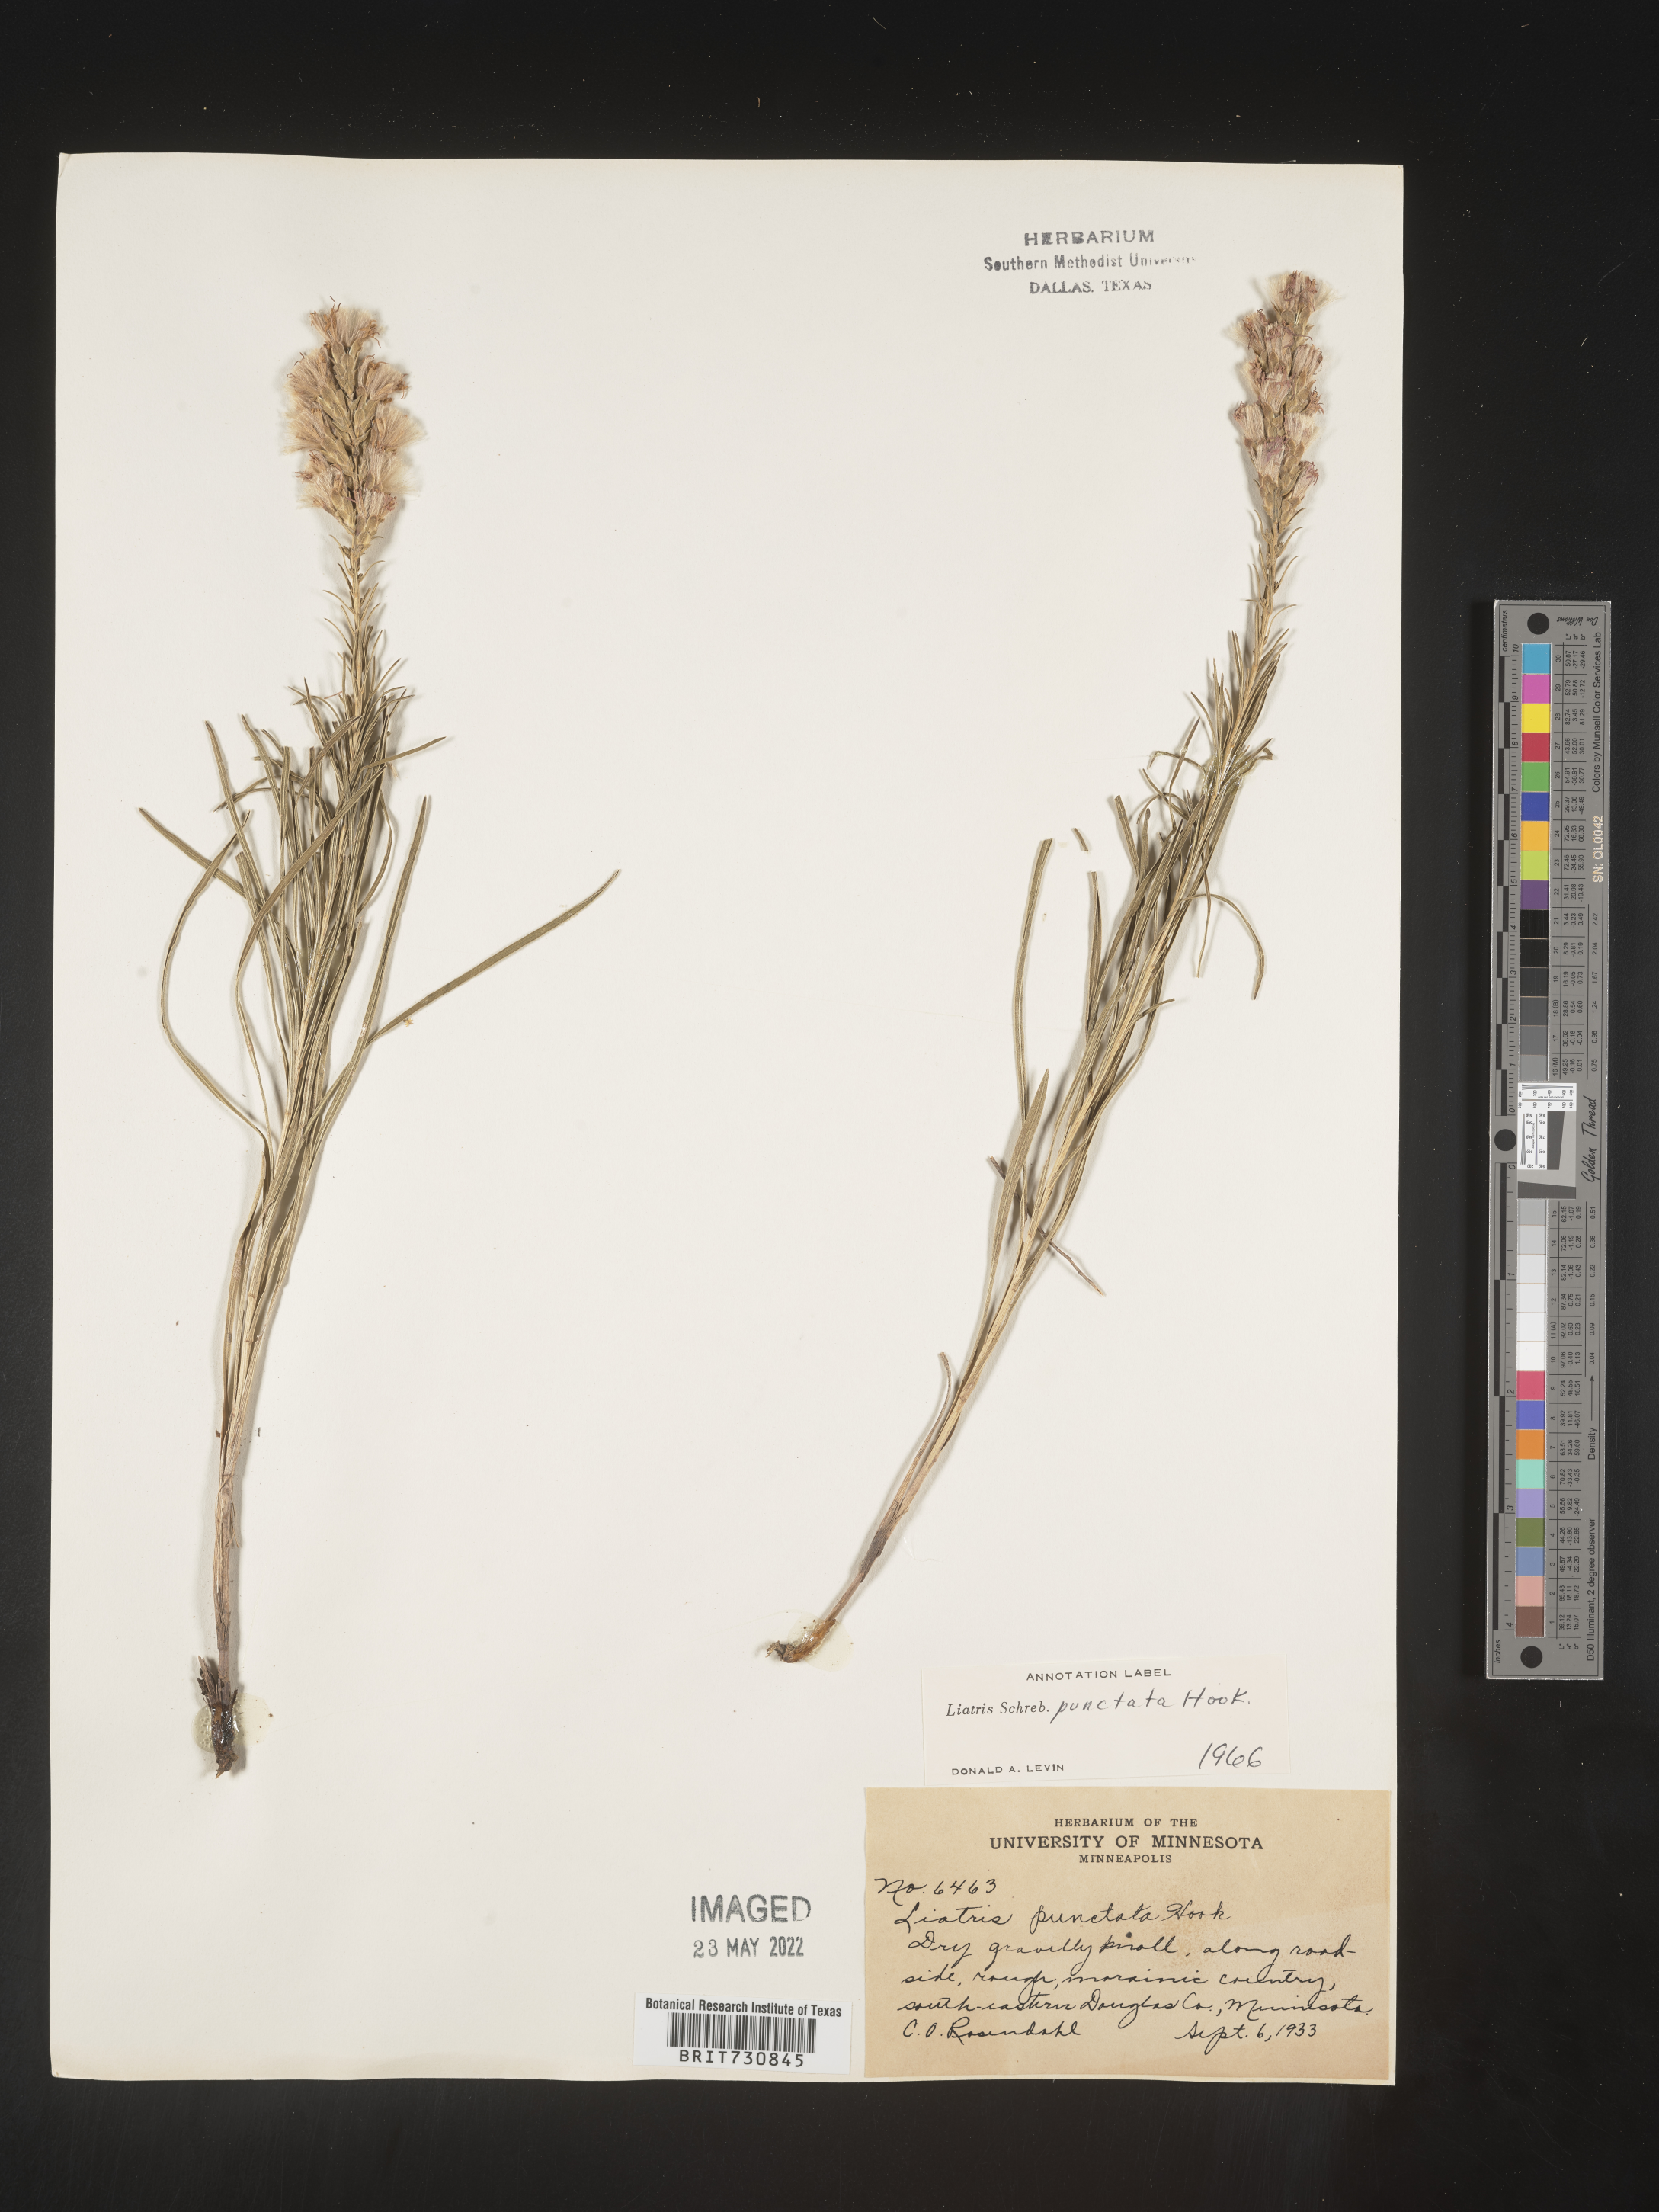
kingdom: Plantae
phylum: Tracheophyta
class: Magnoliopsida
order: Asterales
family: Asteraceae
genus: Liatris
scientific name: Liatris punctata
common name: Dotted gayfeather
